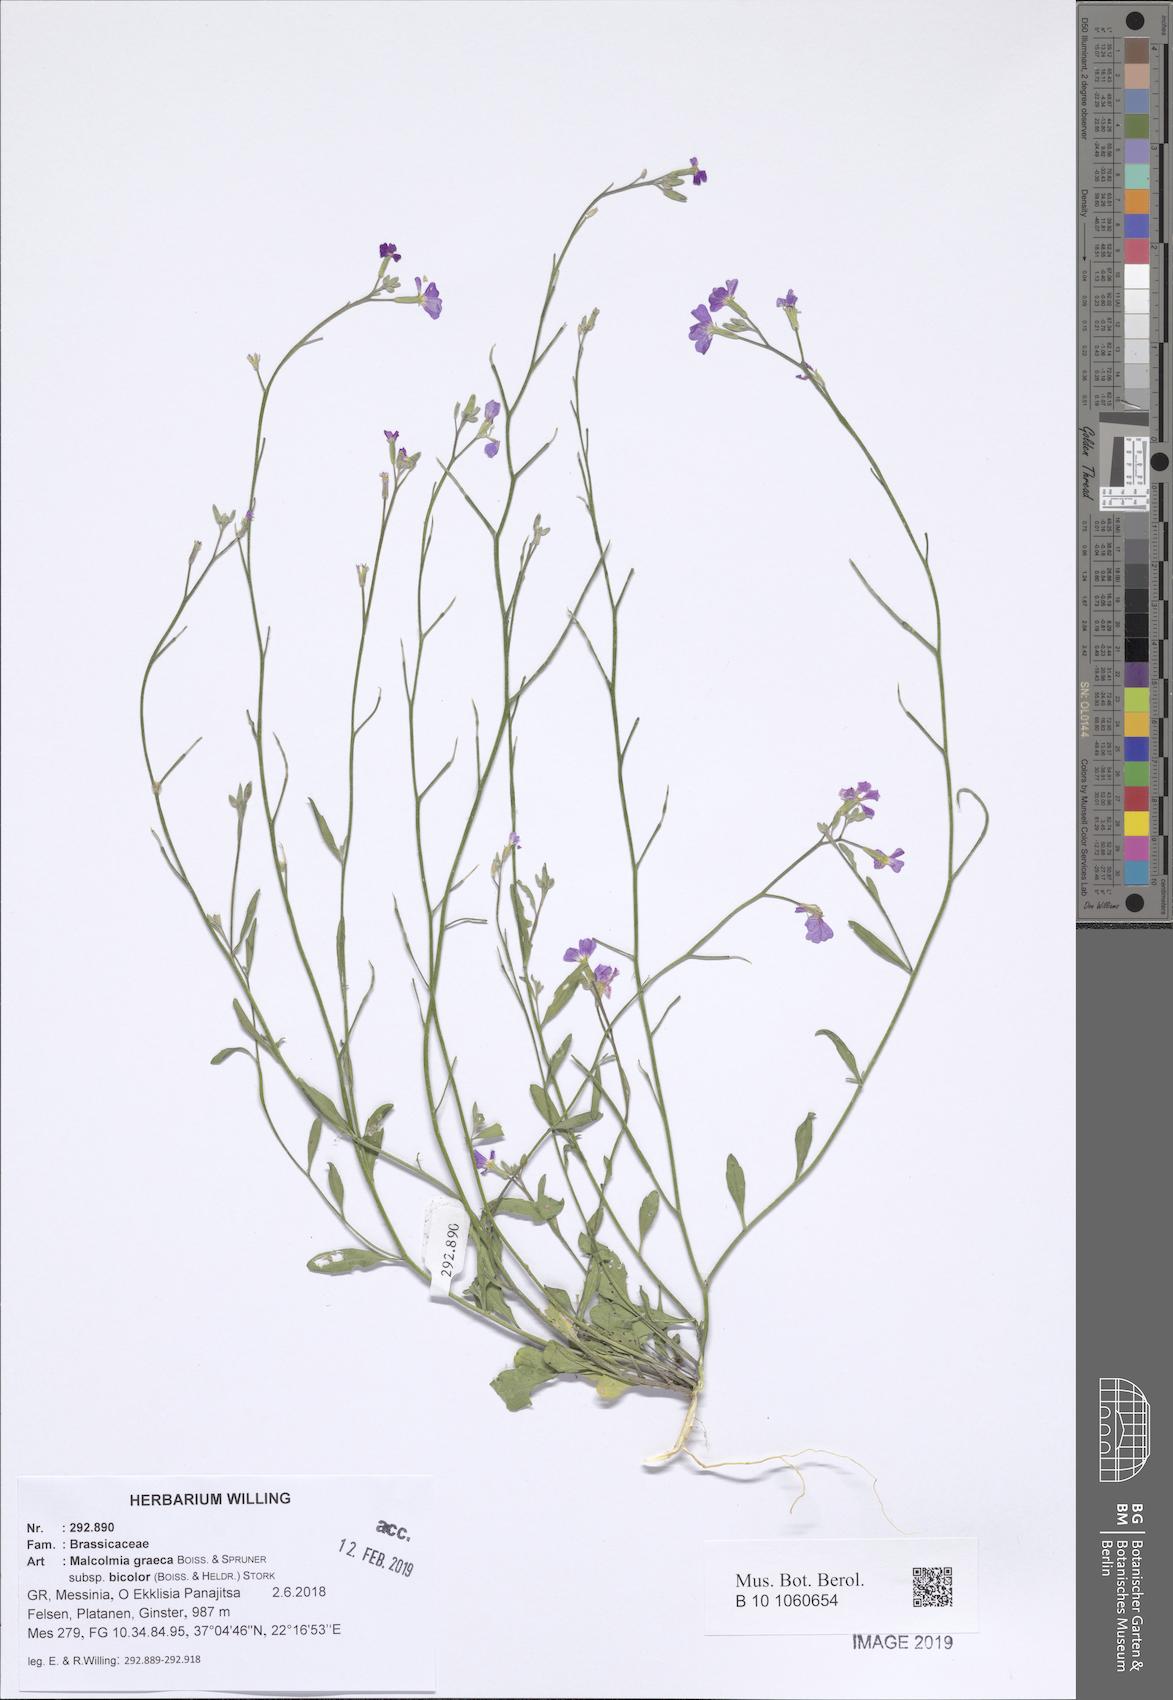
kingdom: Plantae
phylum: Tracheophyta
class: Magnoliopsida
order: Brassicales
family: Brassicaceae
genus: Malcolmia
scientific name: Malcolmia graeca
